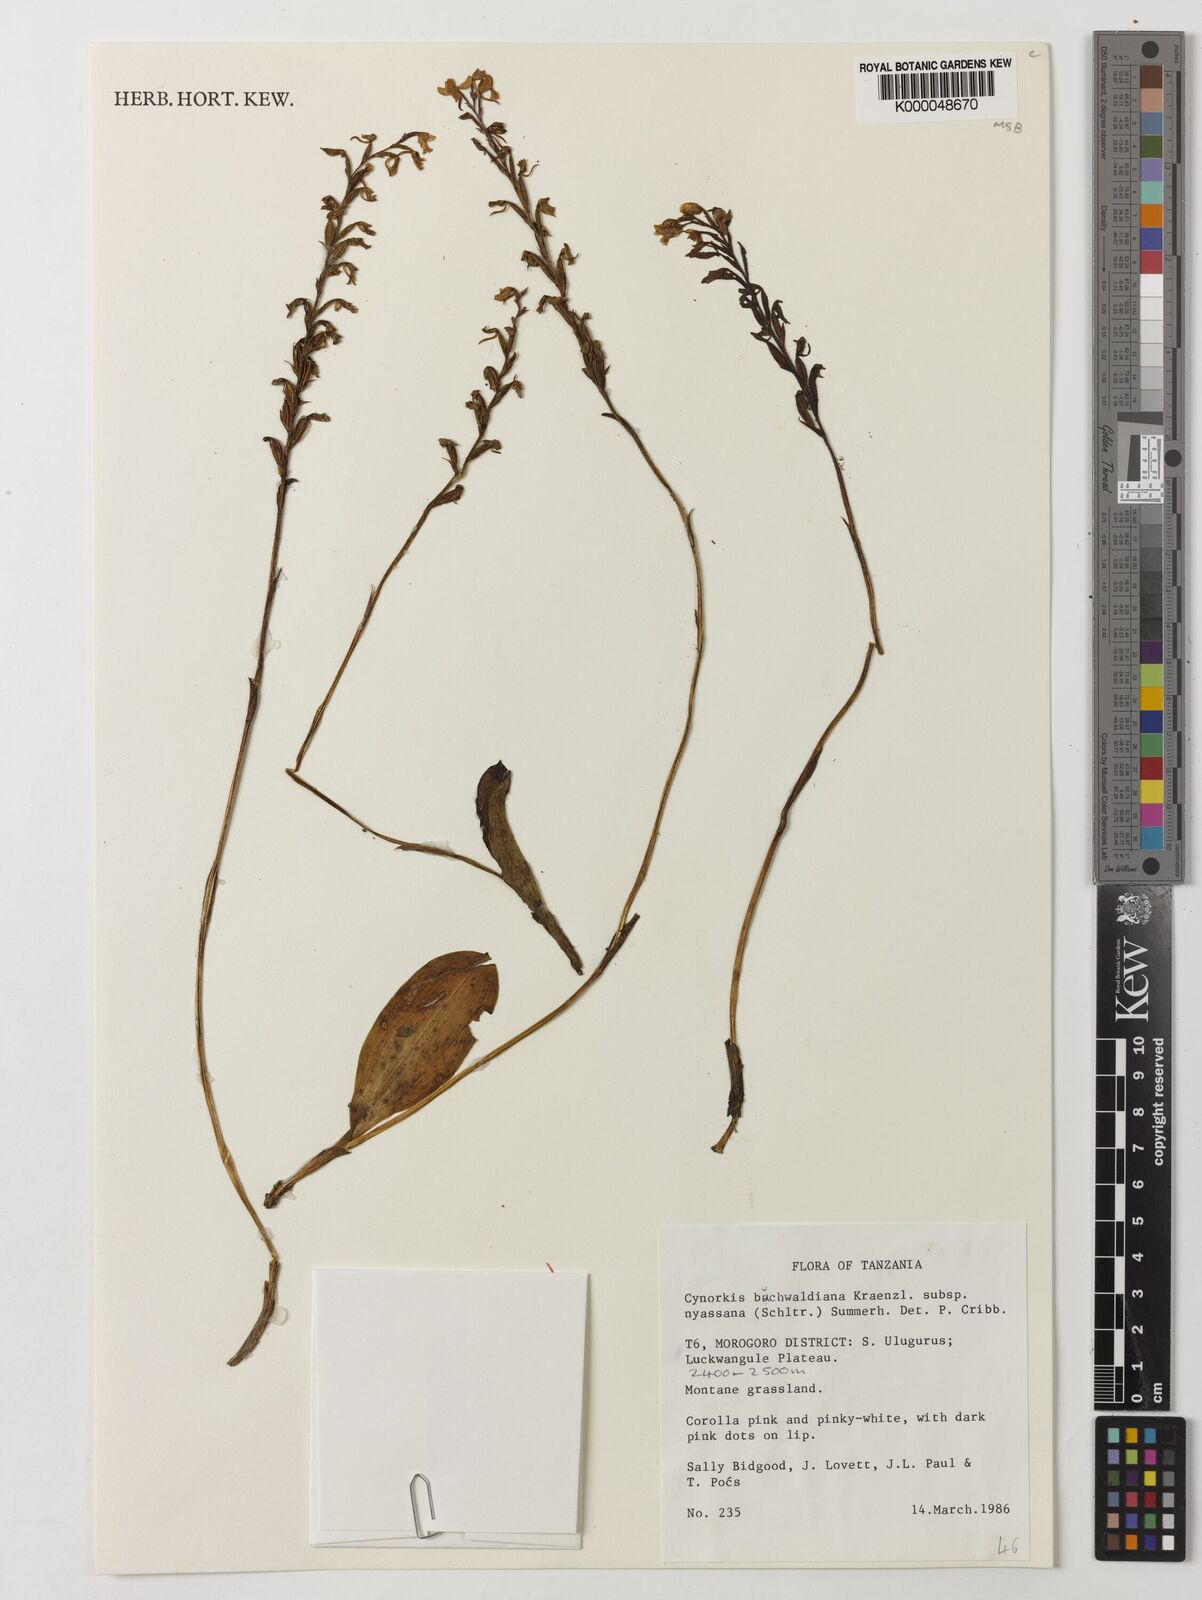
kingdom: Plantae
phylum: Tracheophyta
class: Liliopsida
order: Asparagales
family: Orchidaceae
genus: Cynorkis
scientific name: Cynorkis buchananii
